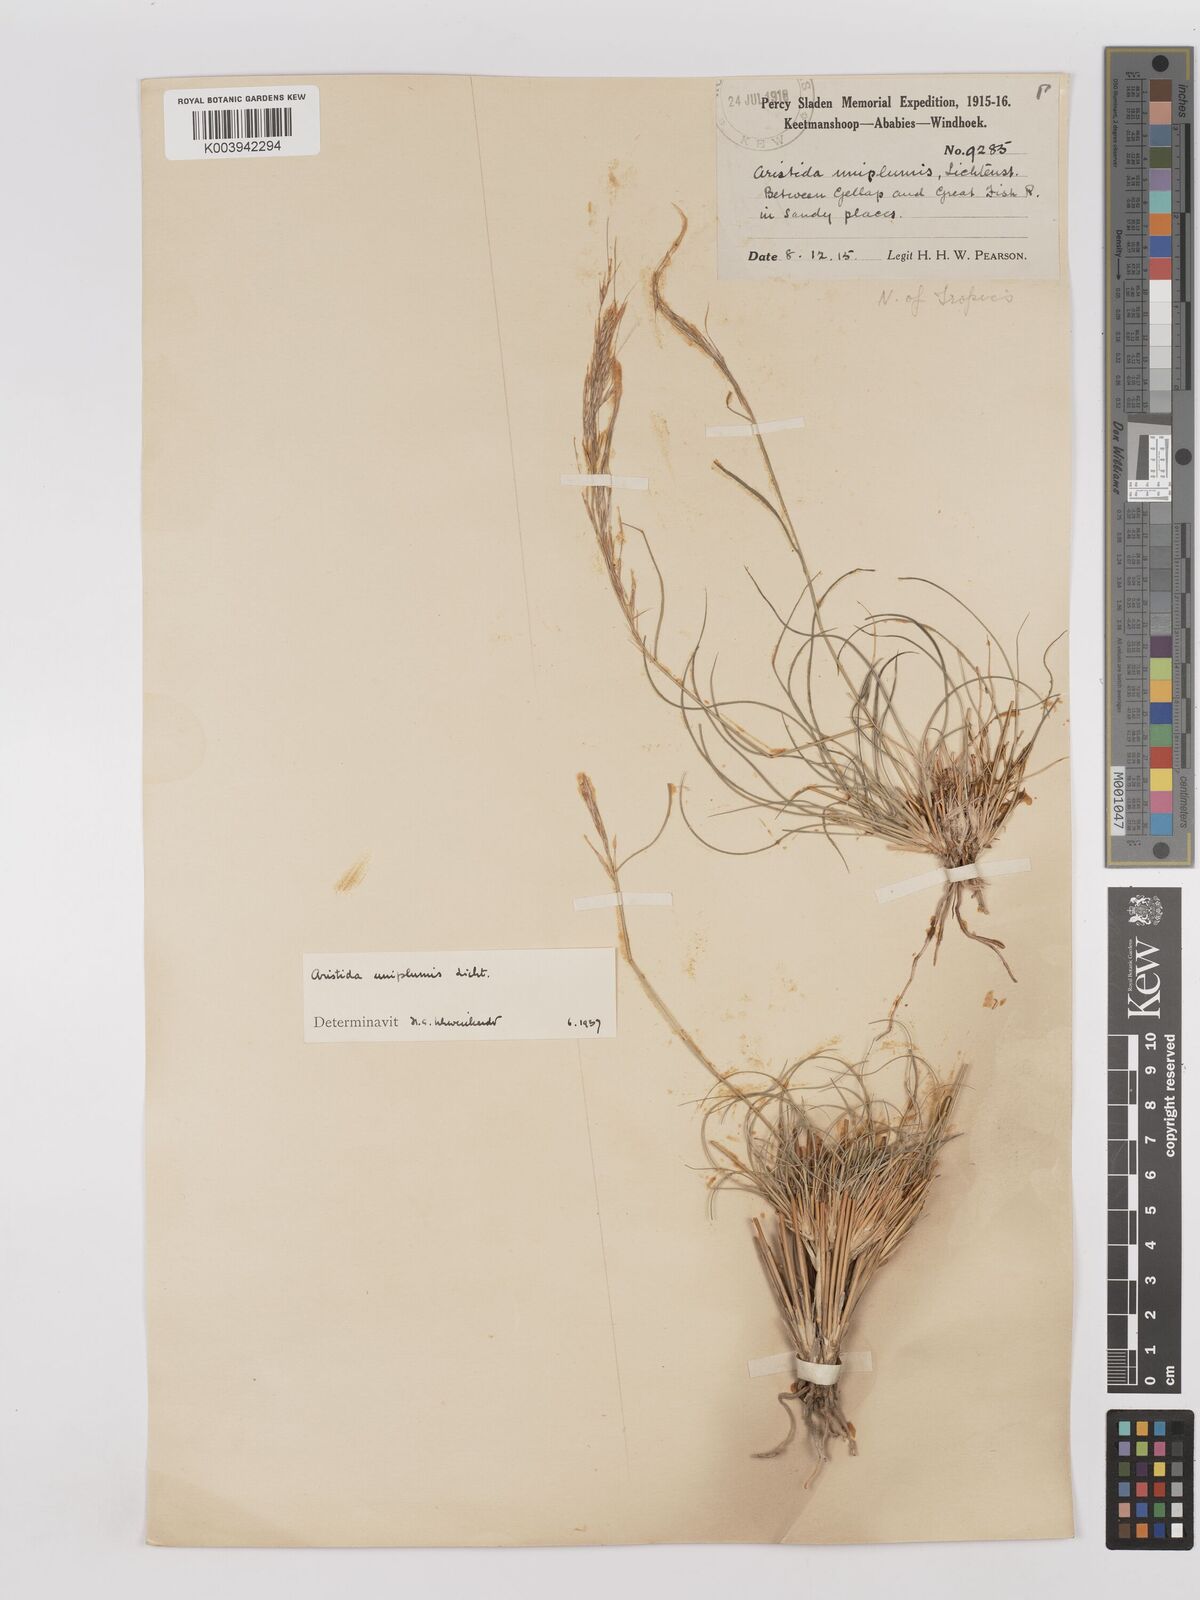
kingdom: Plantae
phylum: Tracheophyta
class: Liliopsida
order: Poales
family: Poaceae
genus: Stipagrostis
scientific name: Stipagrostis uniplumis
